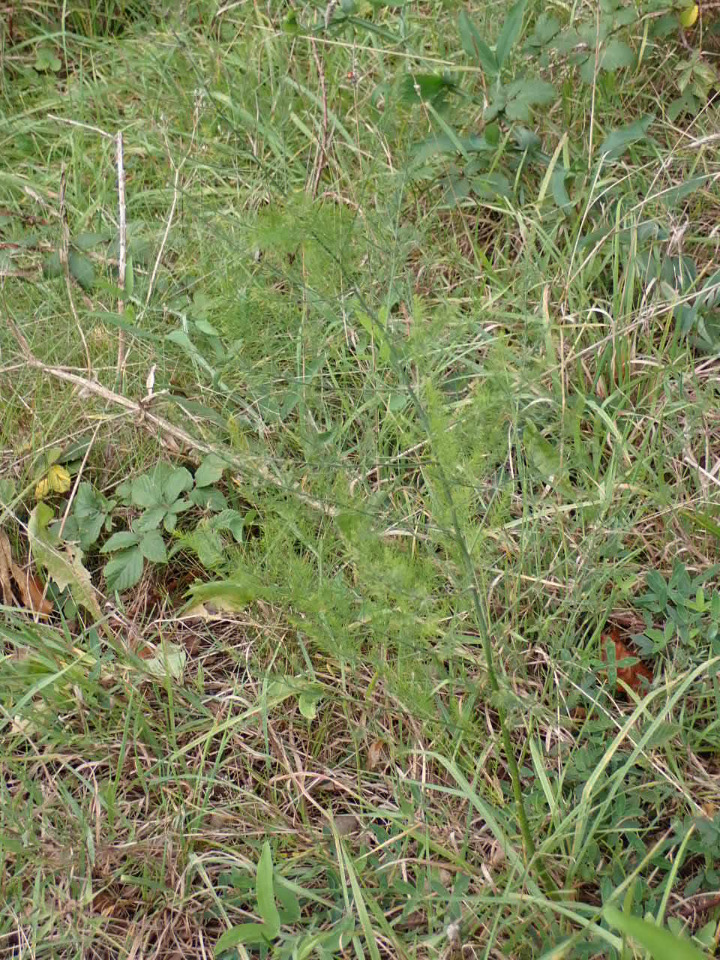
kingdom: Plantae
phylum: Tracheophyta
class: Liliopsida
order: Asparagales
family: Asparagaceae
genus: Asparagus
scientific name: Asparagus officinalis
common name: Asparges
